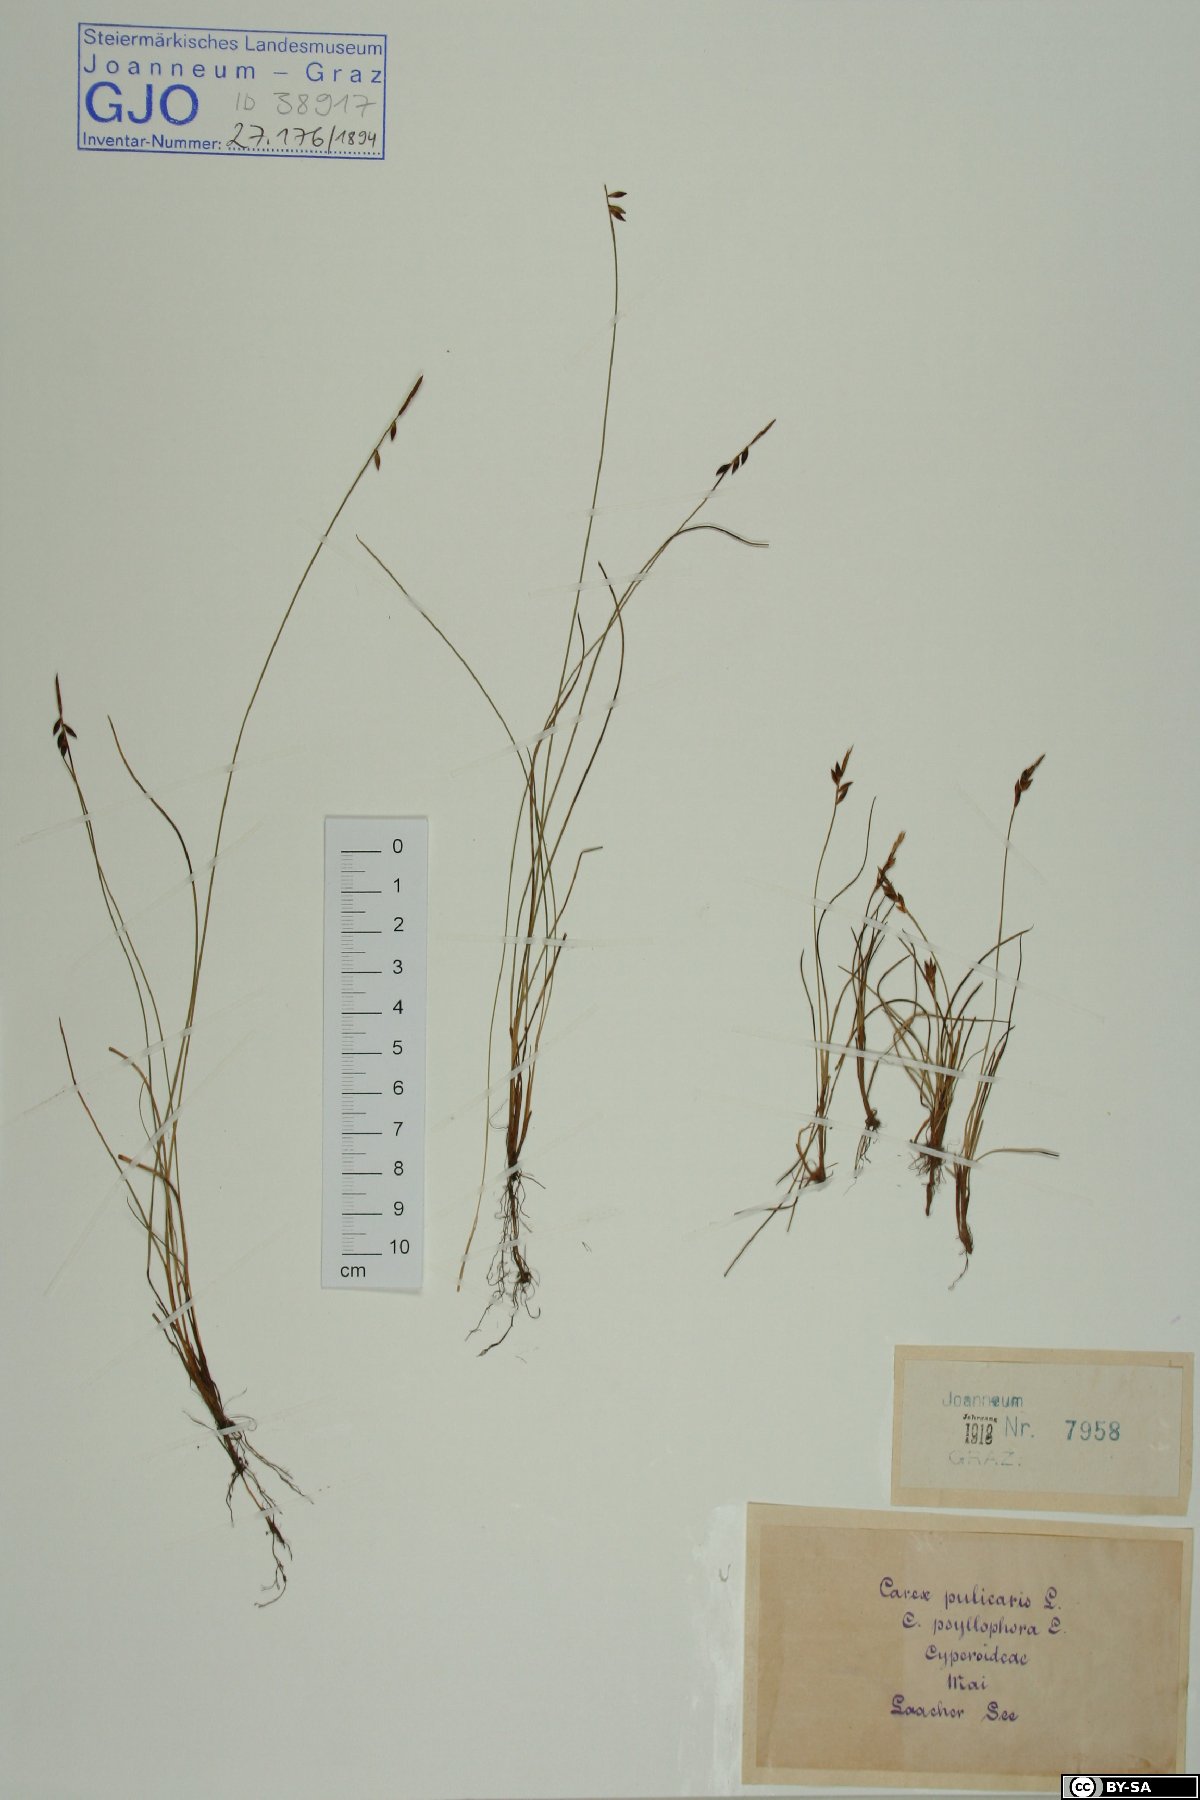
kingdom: Plantae
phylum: Tracheophyta
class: Liliopsida
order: Poales
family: Cyperaceae
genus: Carex
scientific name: Carex pulicaris
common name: Flea sedge
